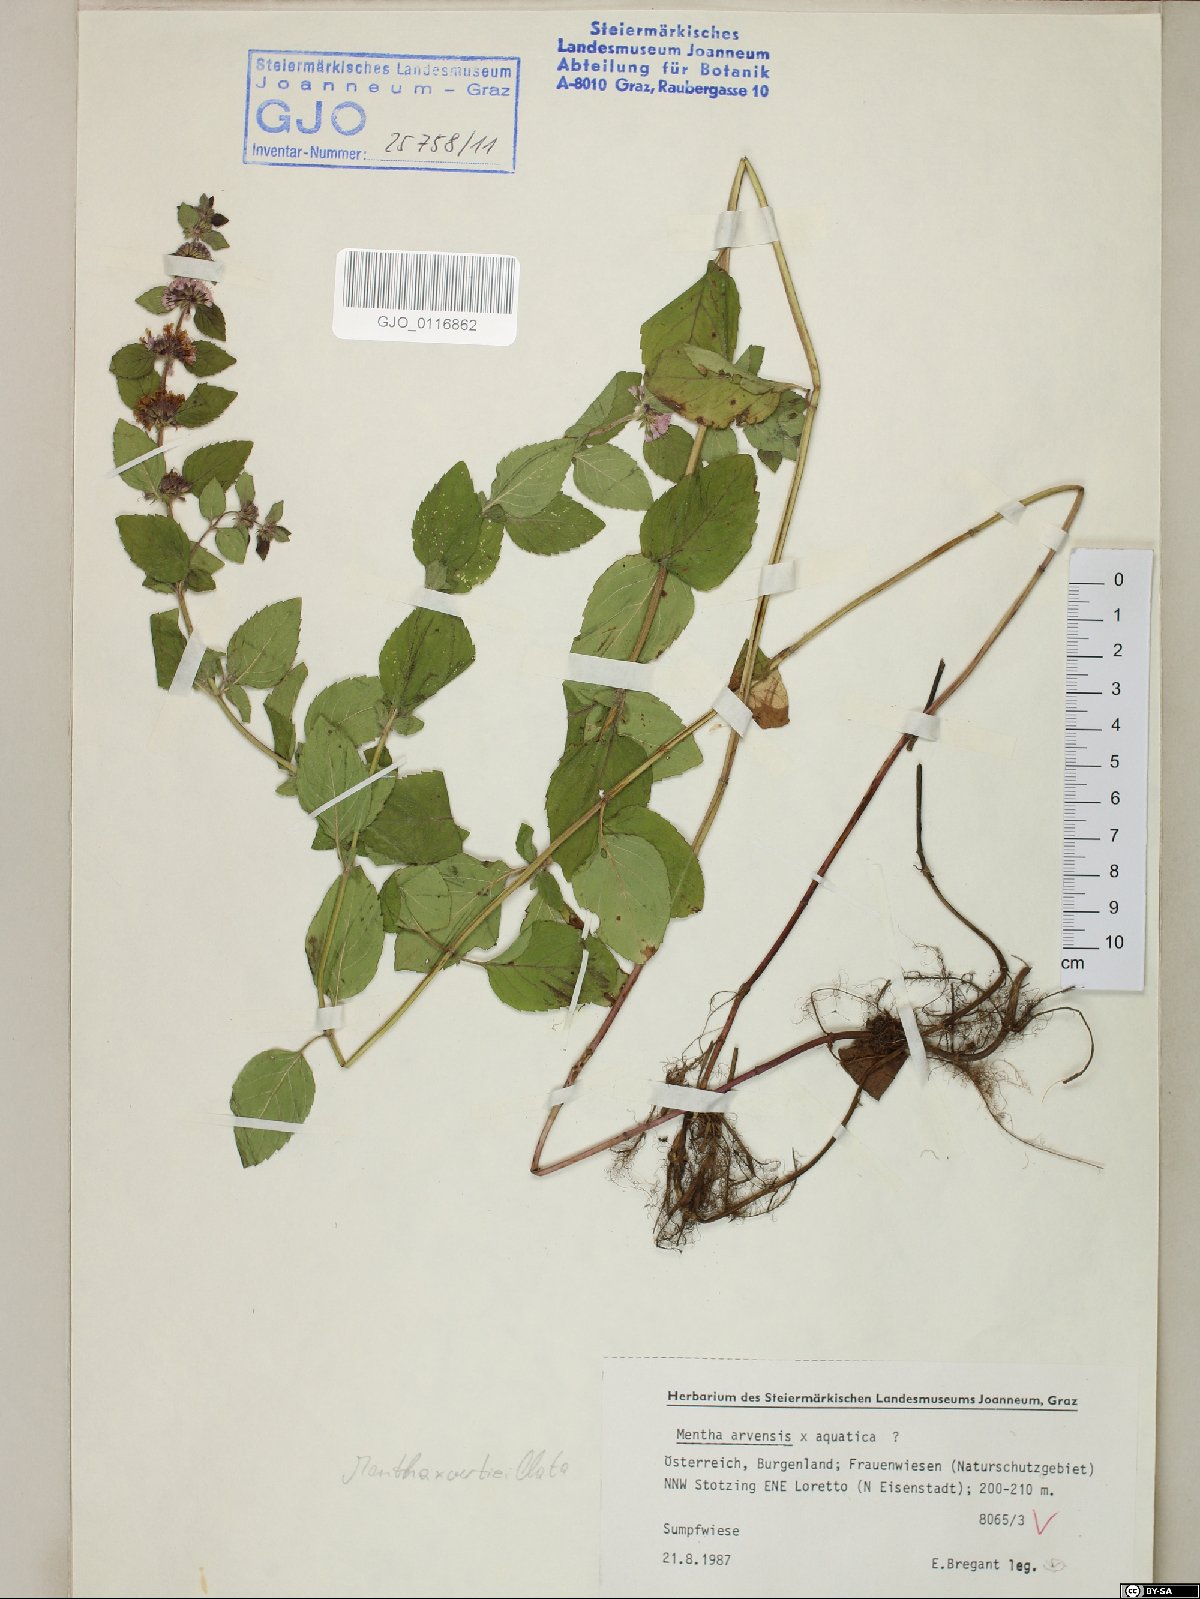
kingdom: Plantae
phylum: Tracheophyta
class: Magnoliopsida
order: Lamiales
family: Lamiaceae
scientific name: Lamiaceae
